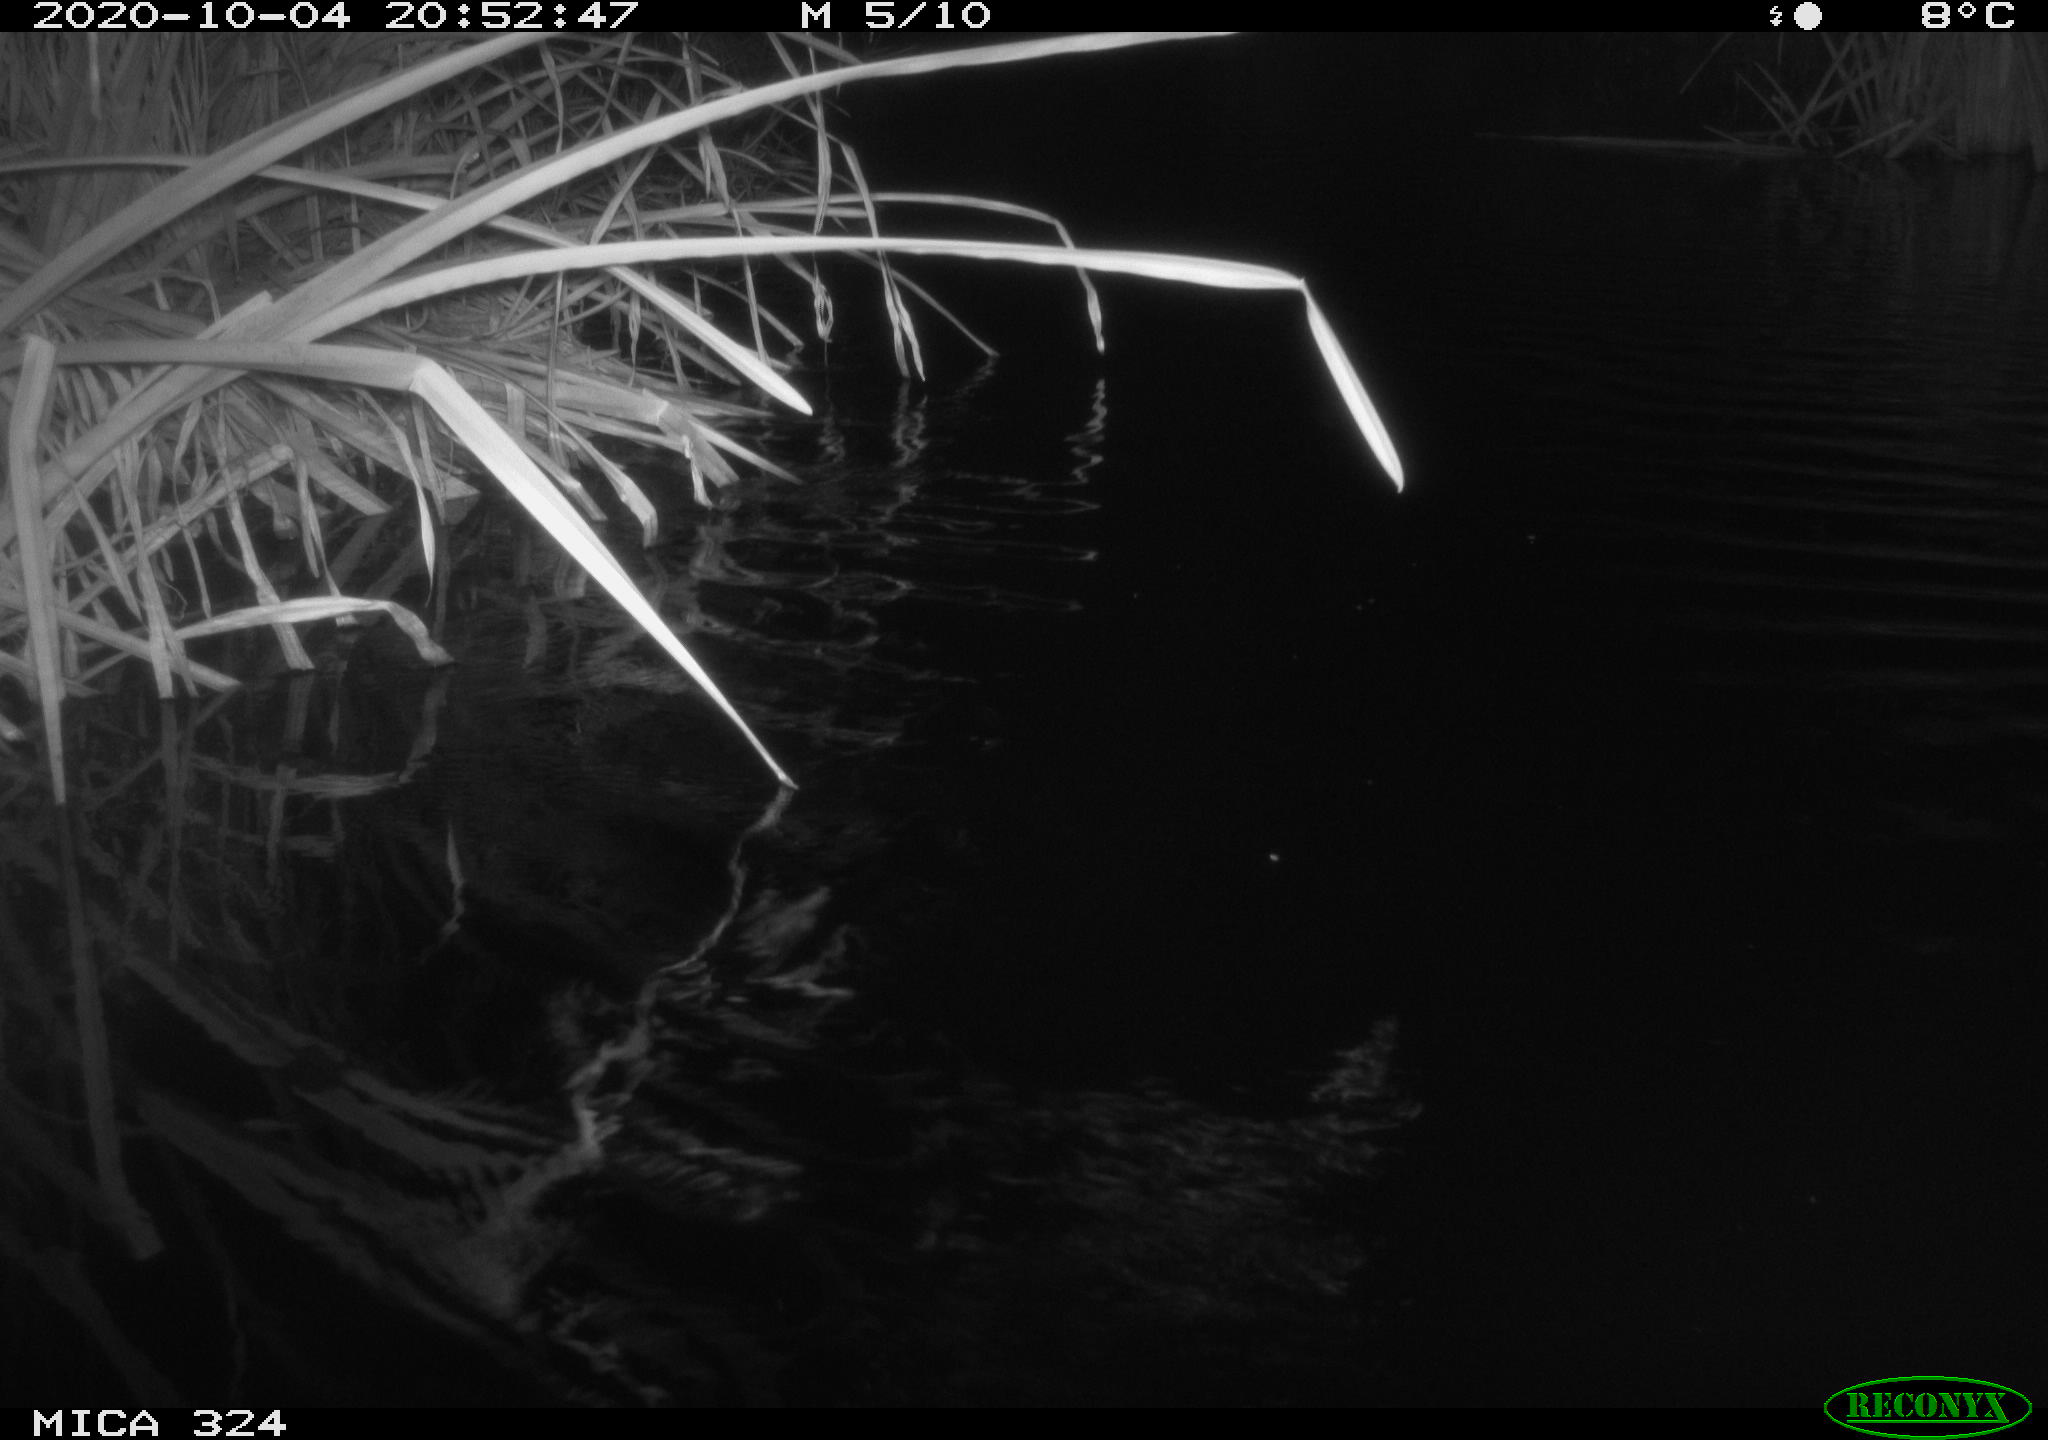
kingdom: Animalia
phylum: Chordata
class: Mammalia
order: Rodentia
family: Myocastoridae
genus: Myocastor
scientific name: Myocastor coypus
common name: Coypu
